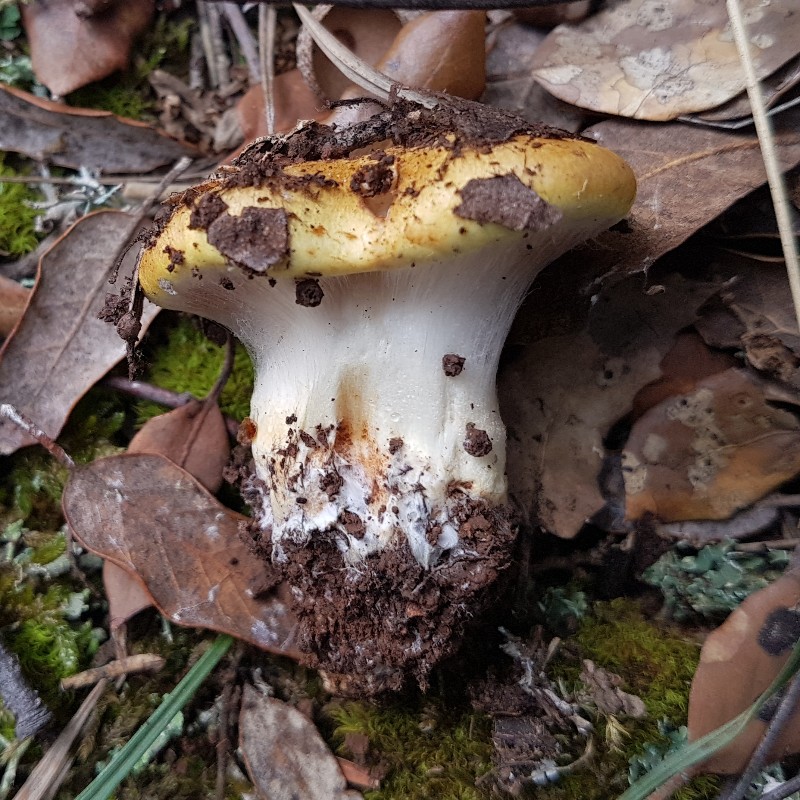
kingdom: Fungi
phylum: Basidiomycota
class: Agaricomycetes
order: Agaricales
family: Cortinariaceae
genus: Phlegmacium
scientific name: Phlegmacium caesiocortinatum
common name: rundsporet slørhat
